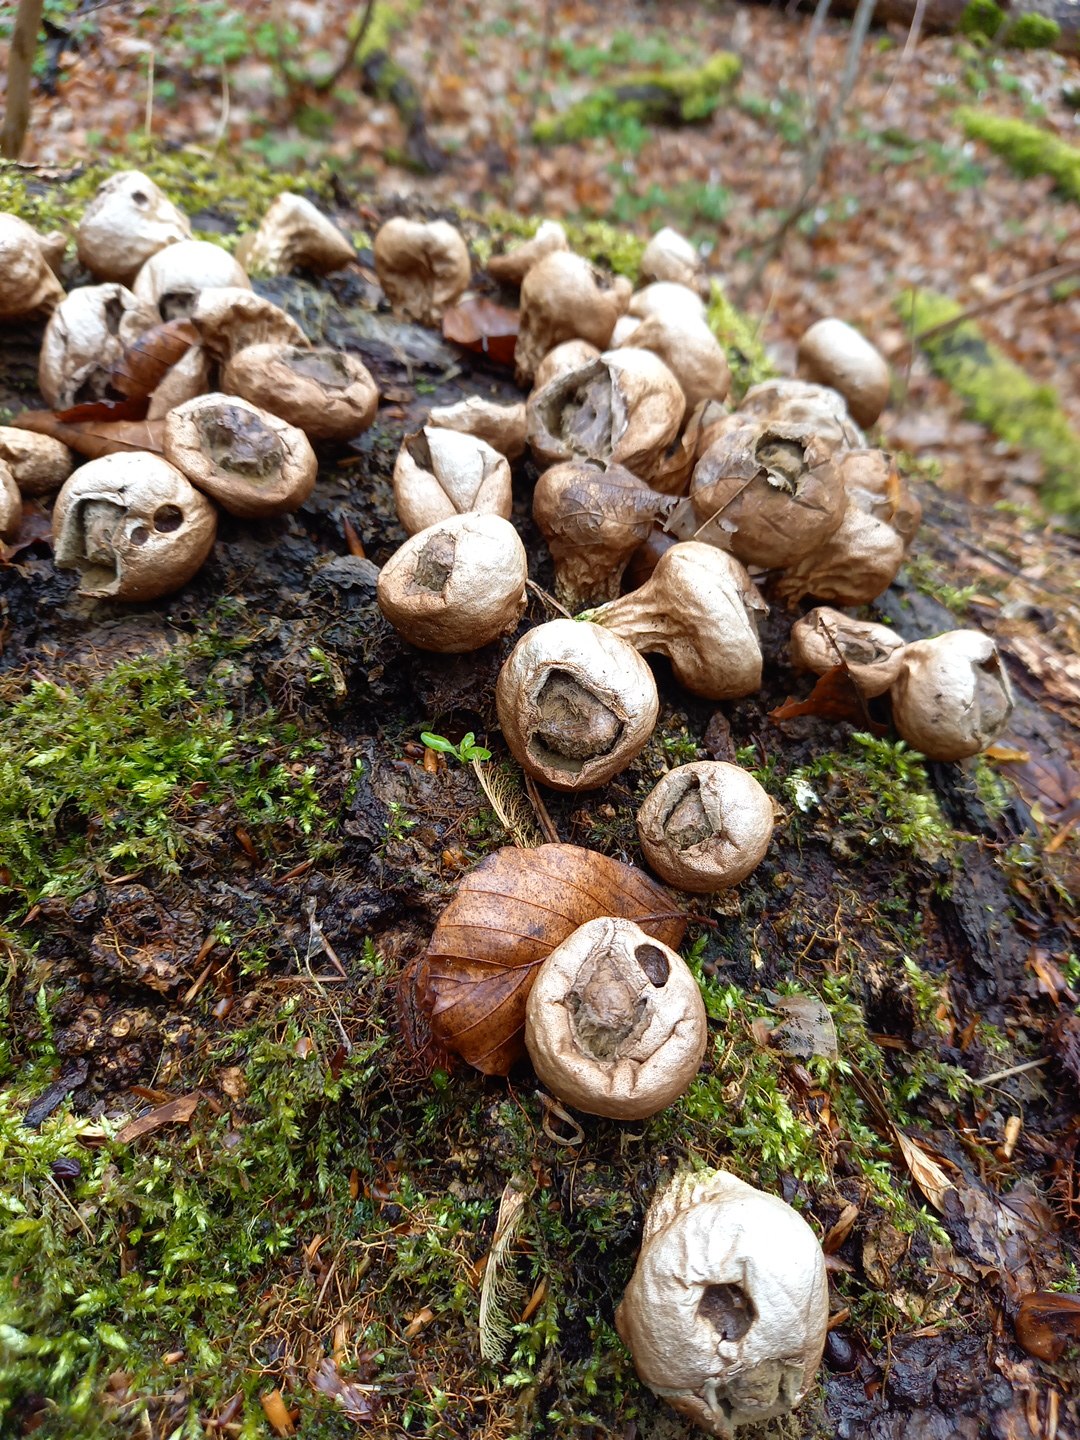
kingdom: Fungi
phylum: Basidiomycota
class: Agaricomycetes
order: Agaricales
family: Lycoperdaceae
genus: Apioperdon
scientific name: Apioperdon pyriforme
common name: pære-støvbold
